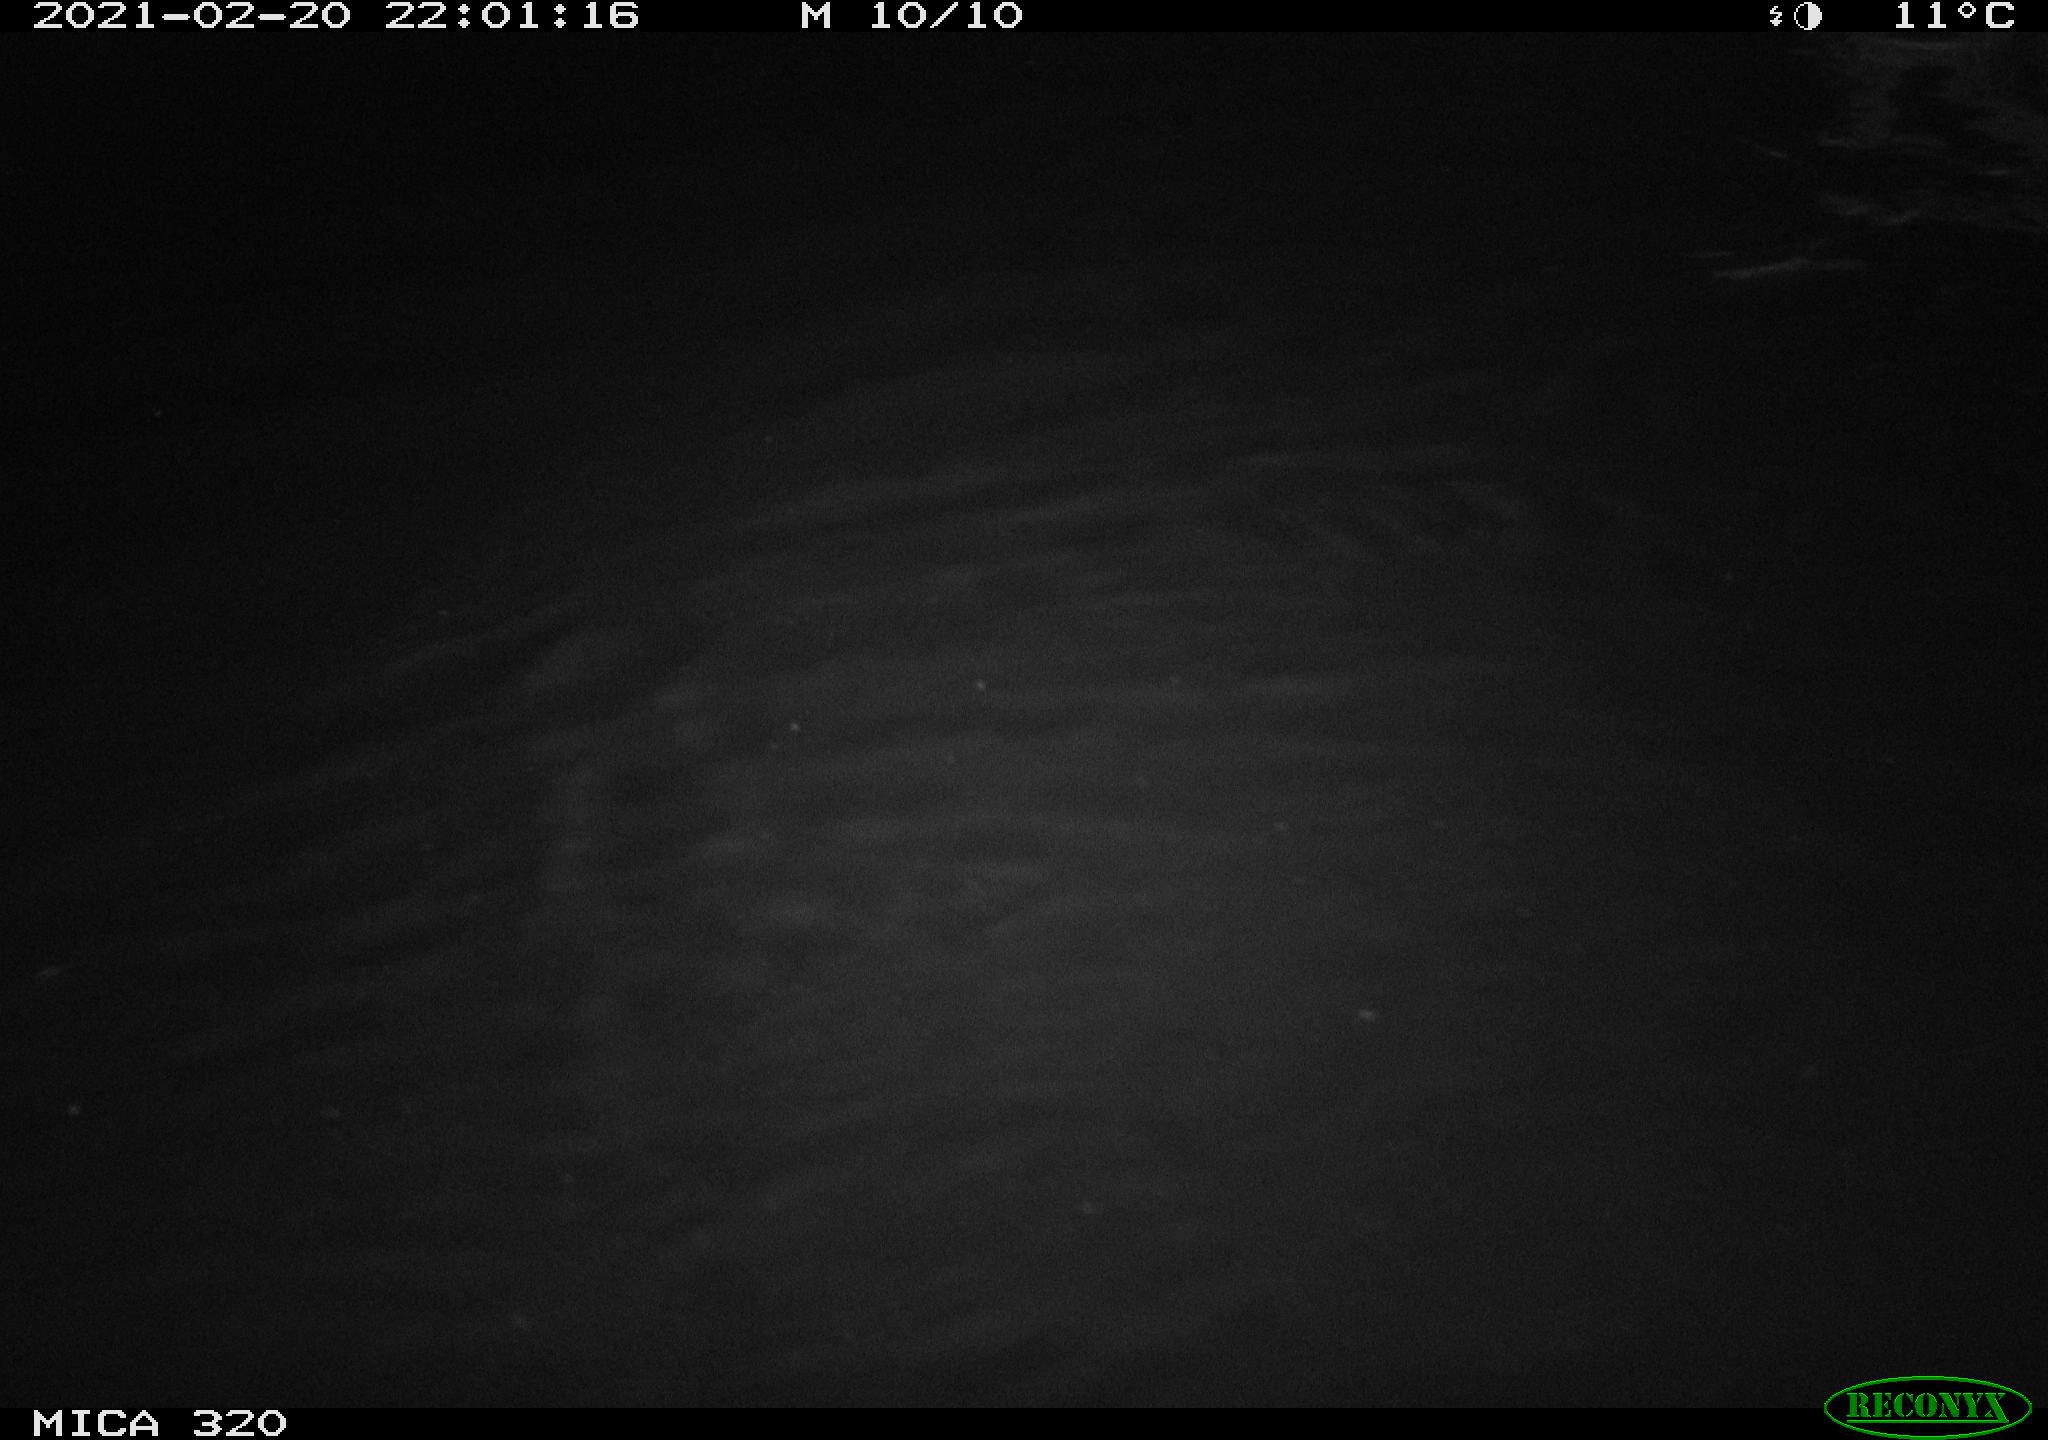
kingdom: Animalia
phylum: Chordata
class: Mammalia
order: Rodentia
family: Cricetidae
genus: Ondatra
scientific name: Ondatra zibethicus
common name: Muskrat
